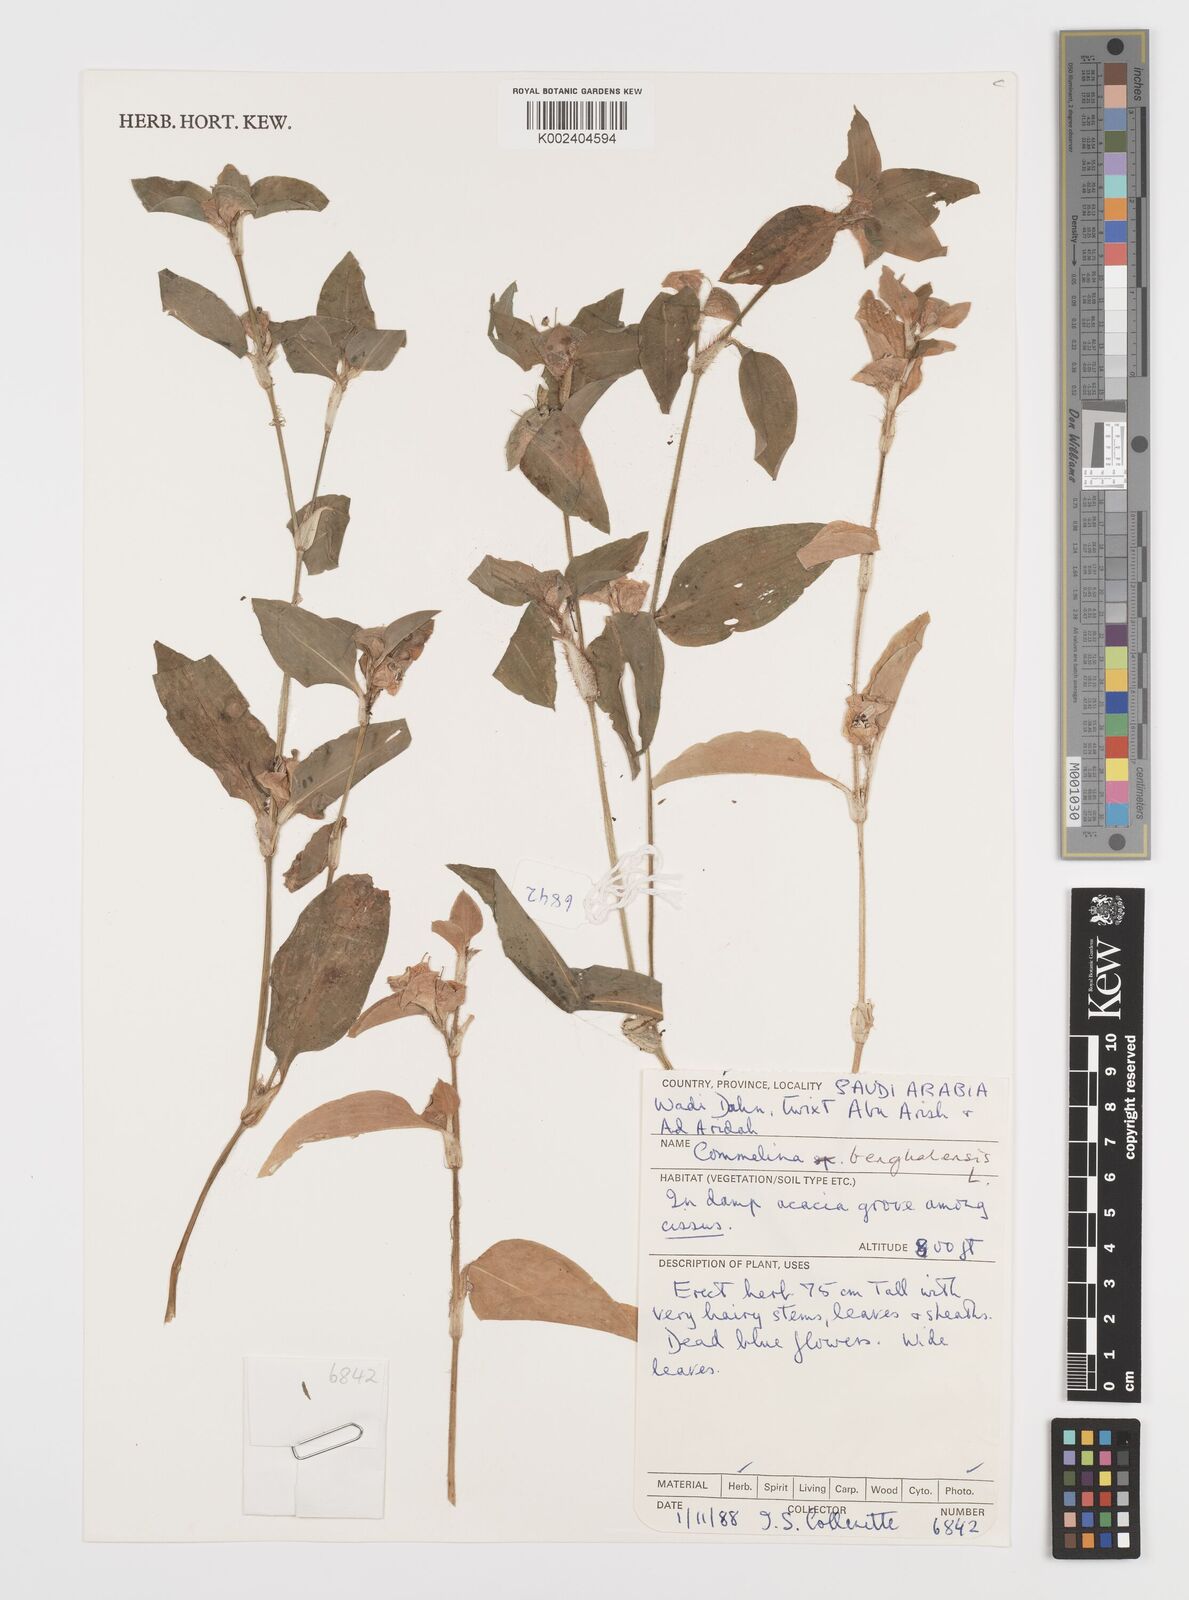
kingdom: Plantae
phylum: Tracheophyta
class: Liliopsida
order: Commelinales
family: Commelinaceae
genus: Commelina
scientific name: Commelina benghalensis
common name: Jio
